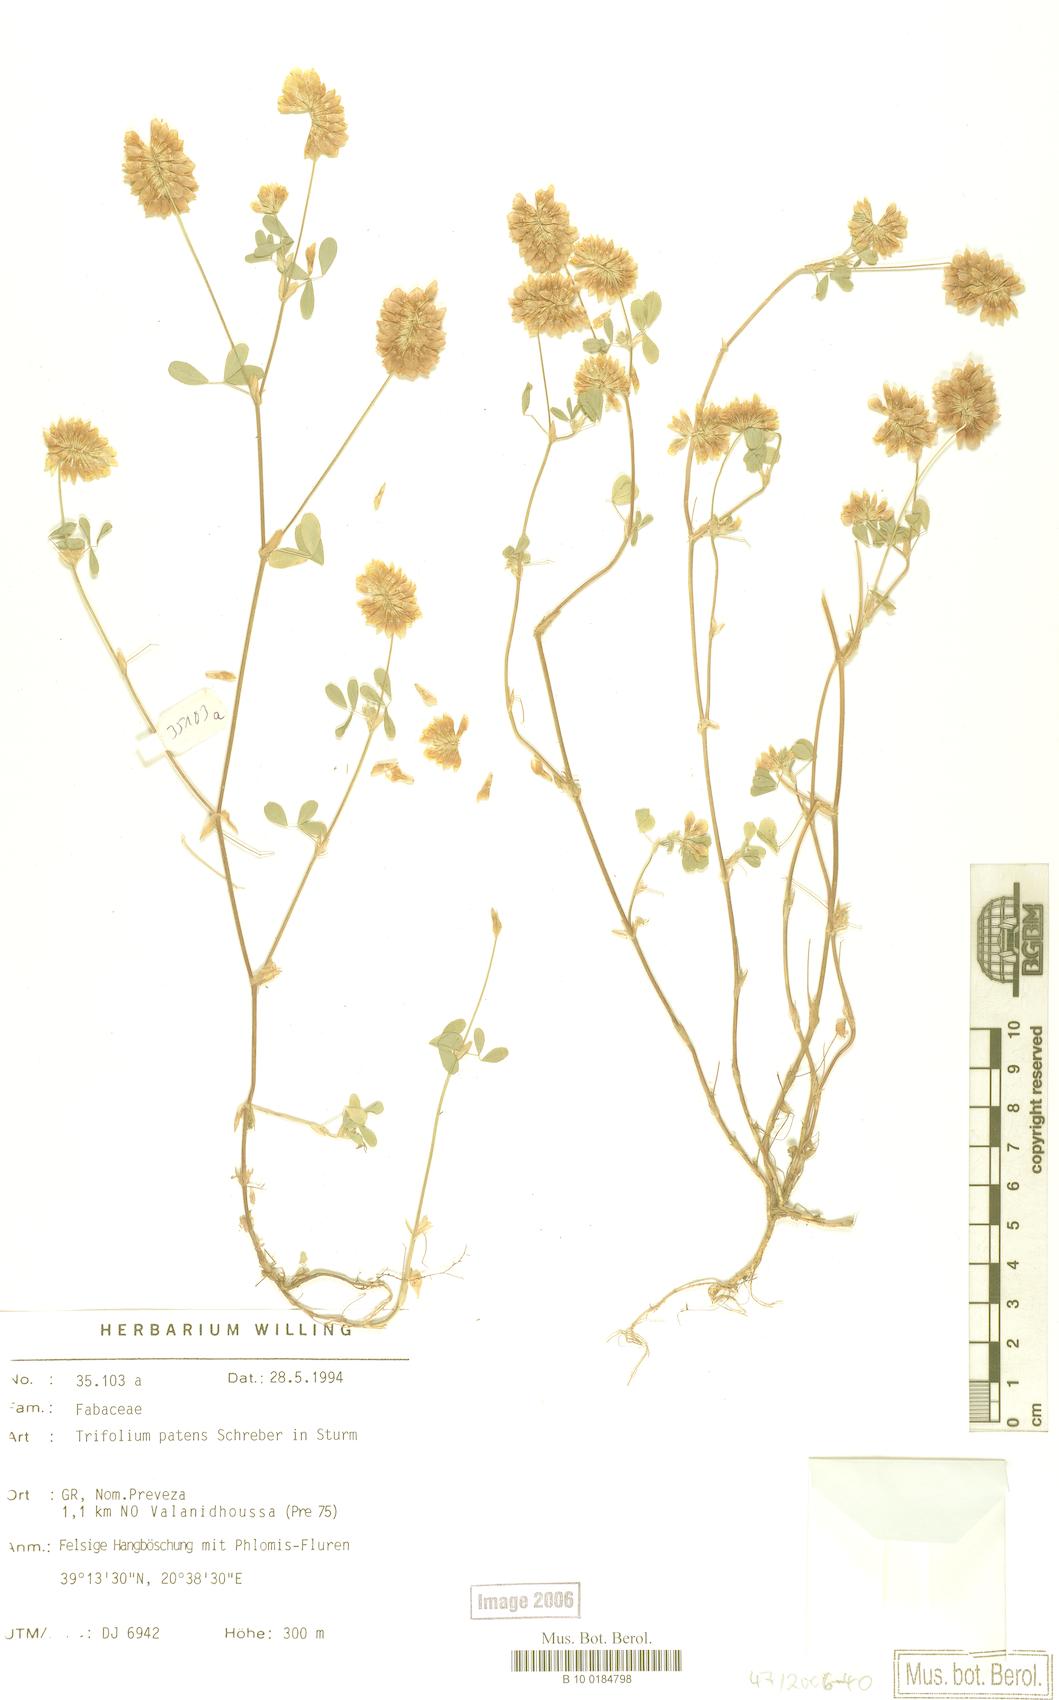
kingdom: Plantae
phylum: Tracheophyta
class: Magnoliopsida
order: Fabales
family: Fabaceae
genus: Trifolium
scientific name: Trifolium patens
